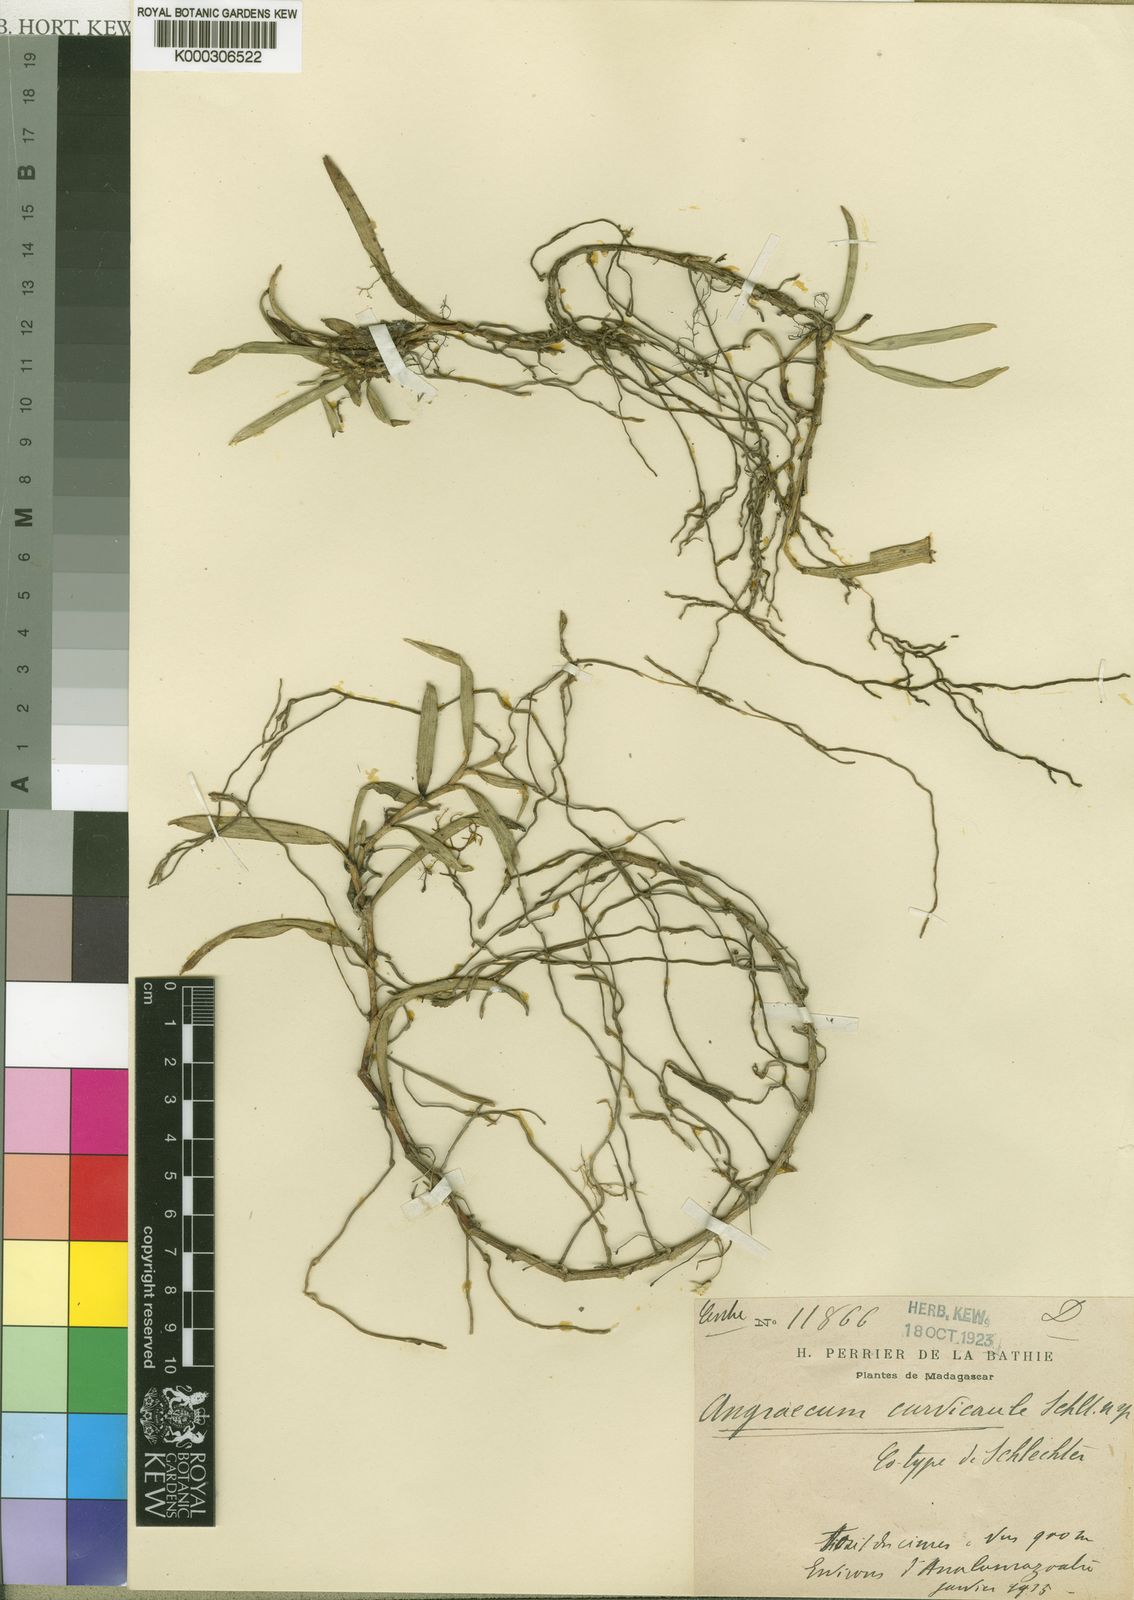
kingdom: Plantae
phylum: Tracheophyta
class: Liliopsida
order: Asparagales
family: Orchidaceae
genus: Angraecum
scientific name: Angraecum curvicaule
